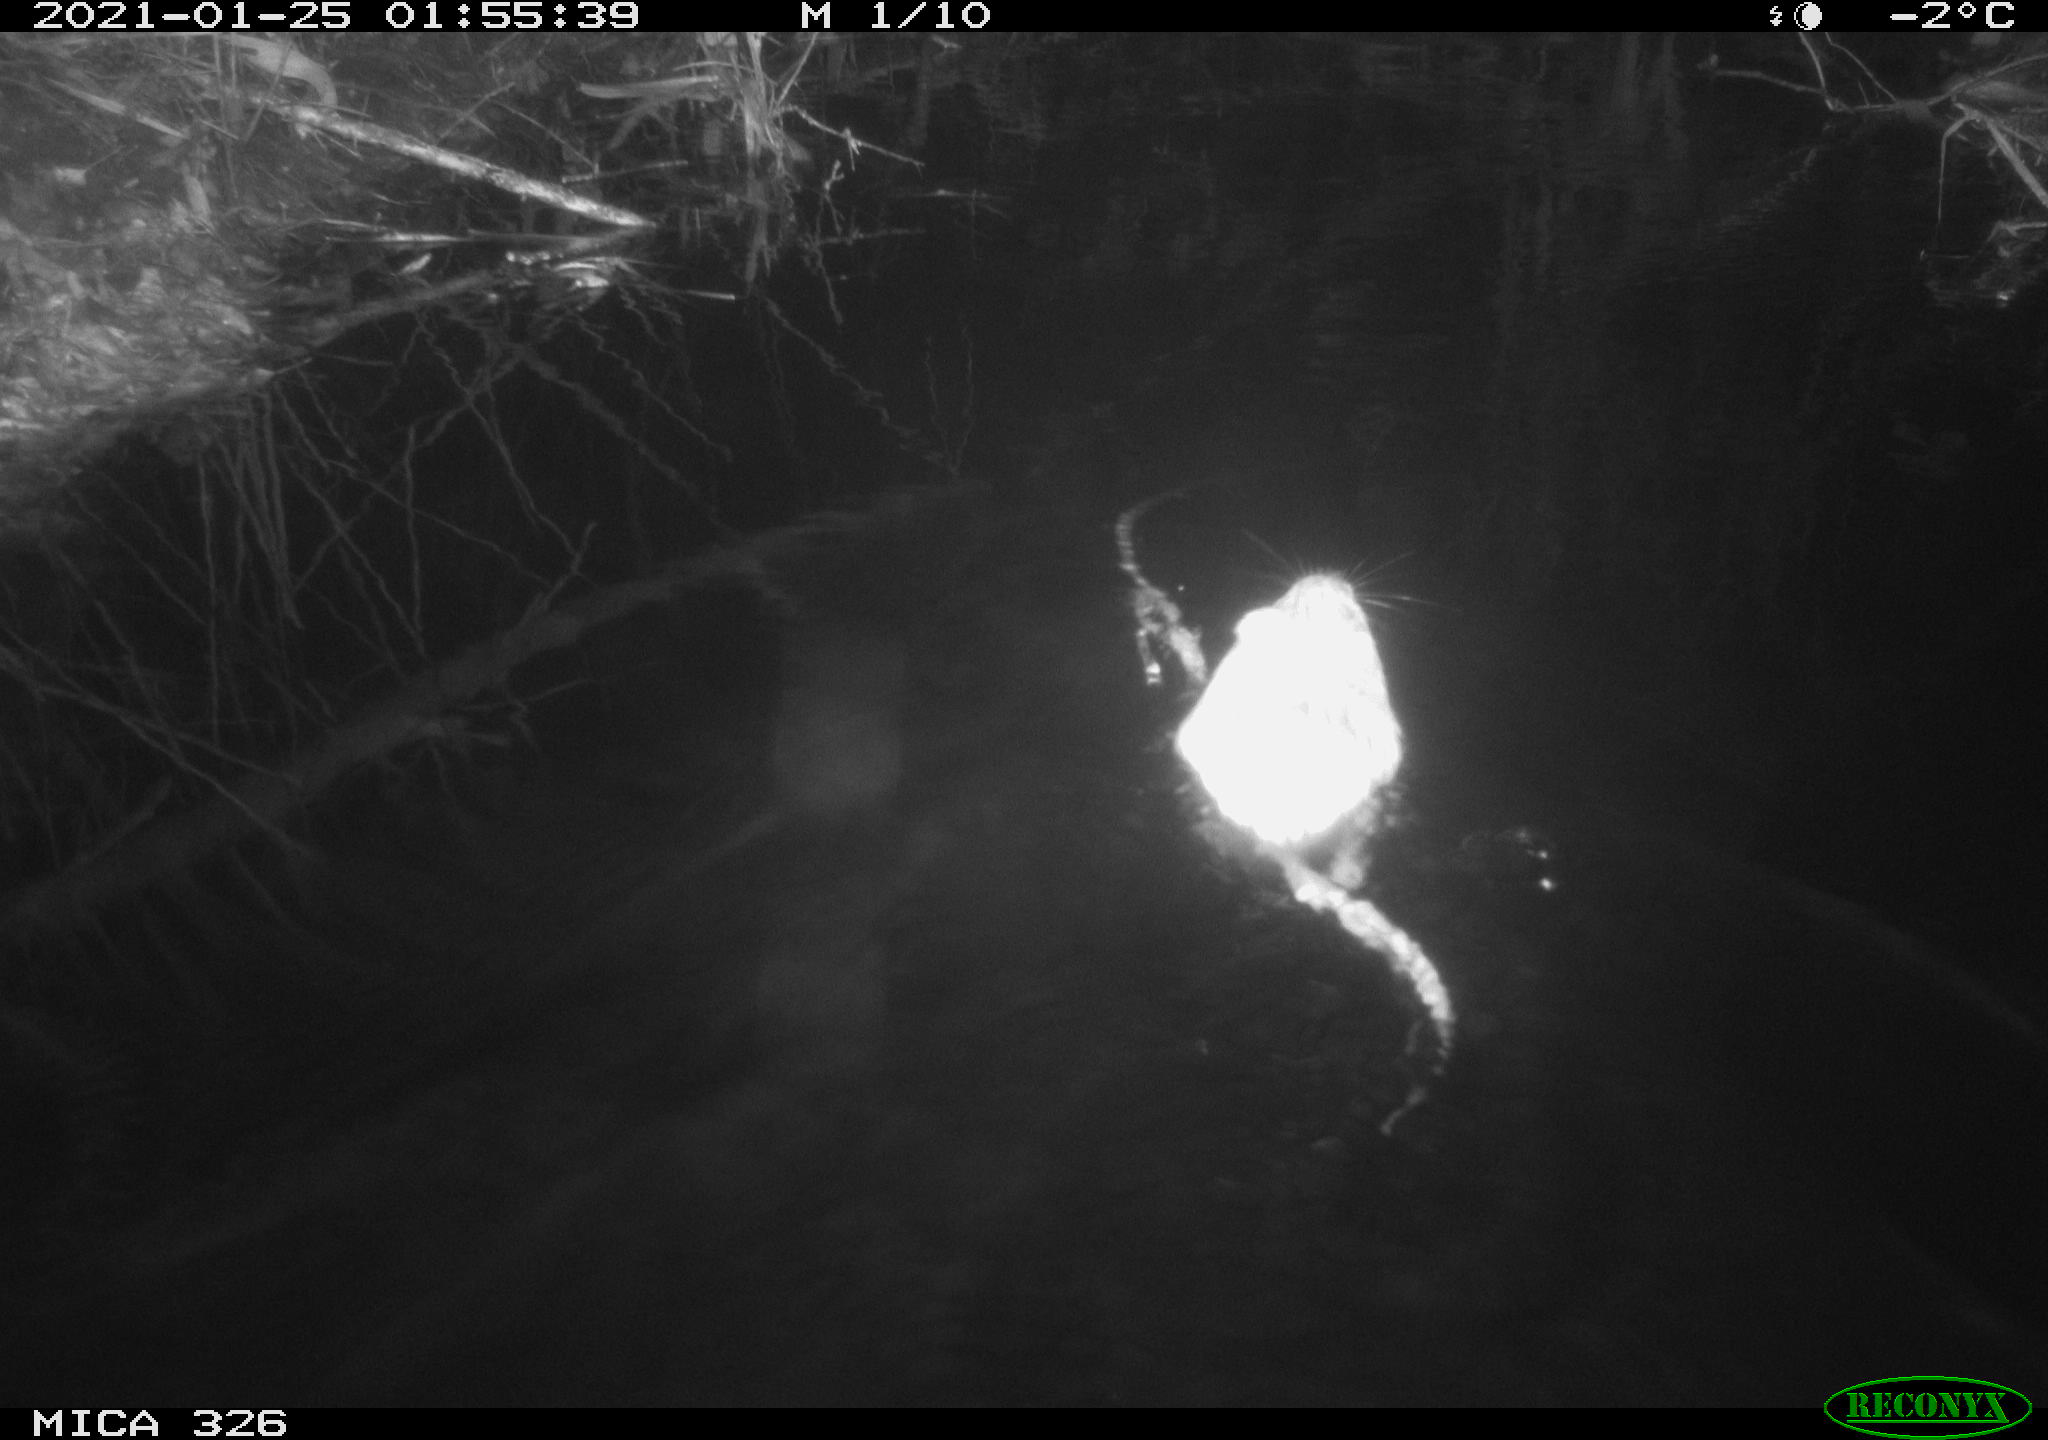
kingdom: Animalia
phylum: Chordata
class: Mammalia
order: Rodentia
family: Cricetidae
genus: Ondatra
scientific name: Ondatra zibethicus
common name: Muskrat
